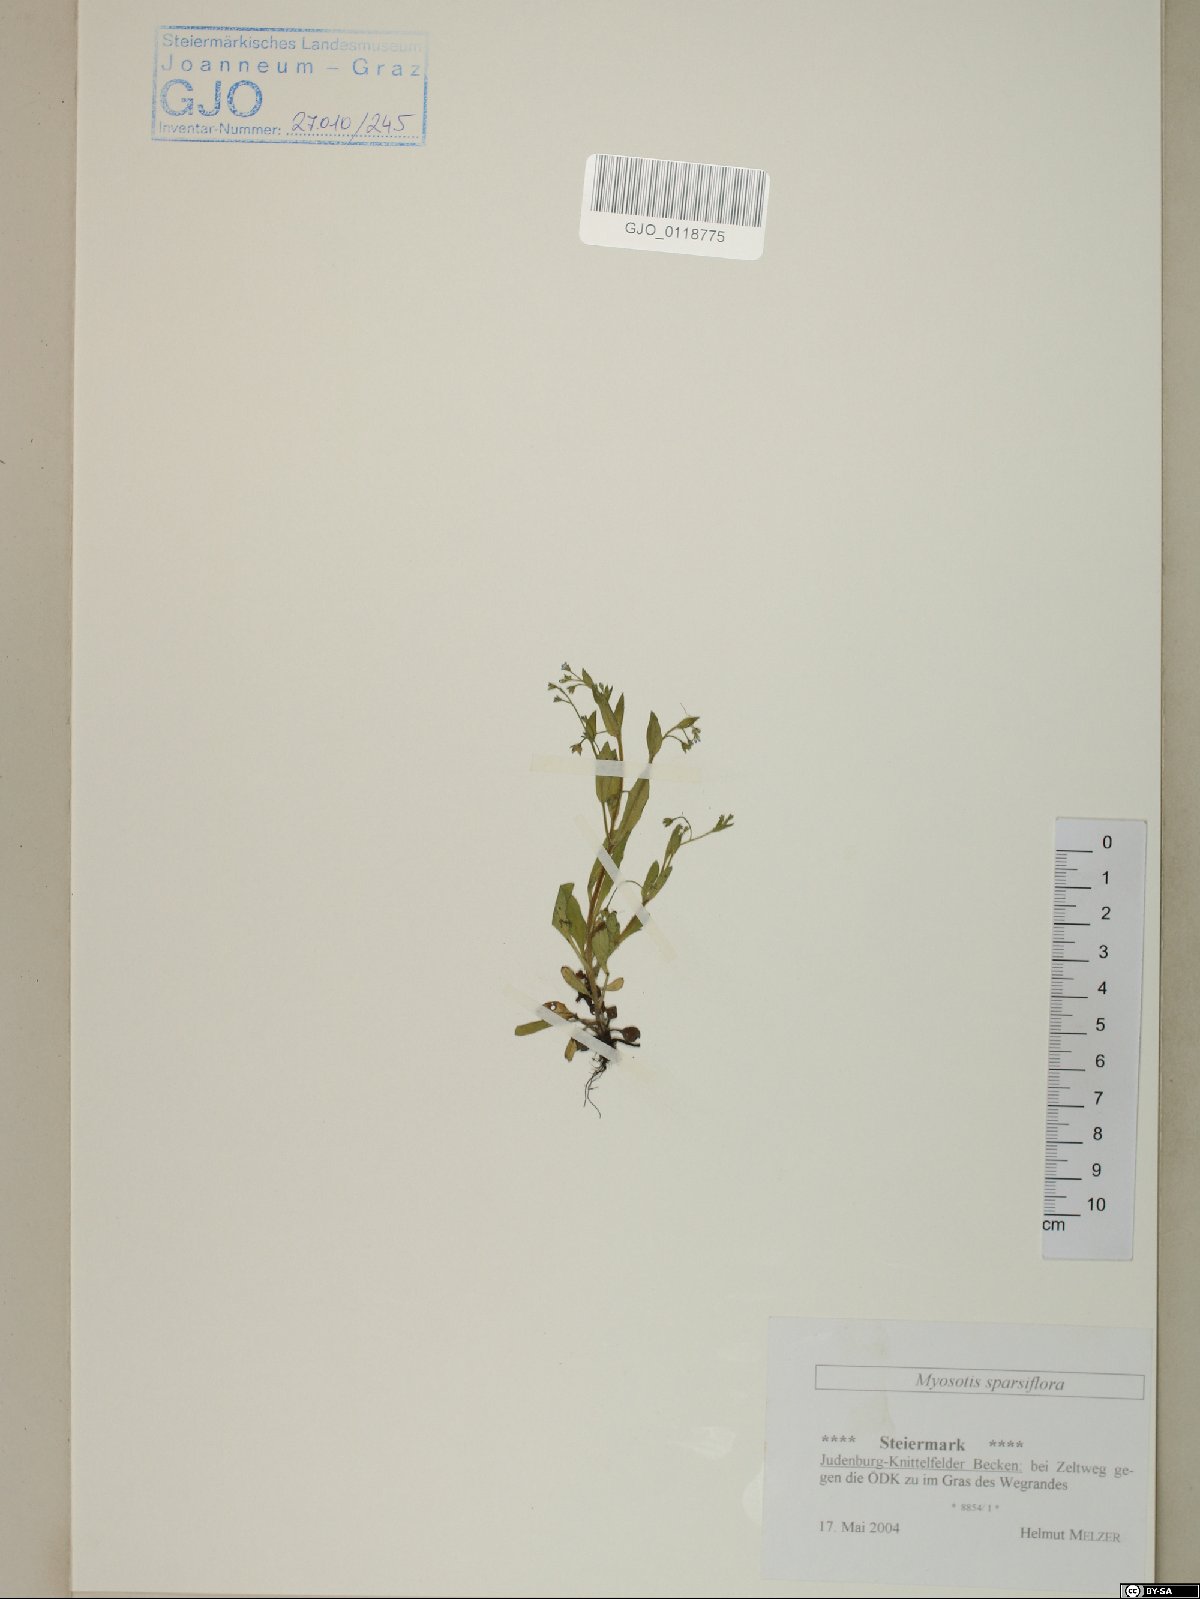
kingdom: Plantae
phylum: Tracheophyta
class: Magnoliopsida
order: Boraginales
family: Boraginaceae
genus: Myosotis
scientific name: Myosotis sparsiflora
